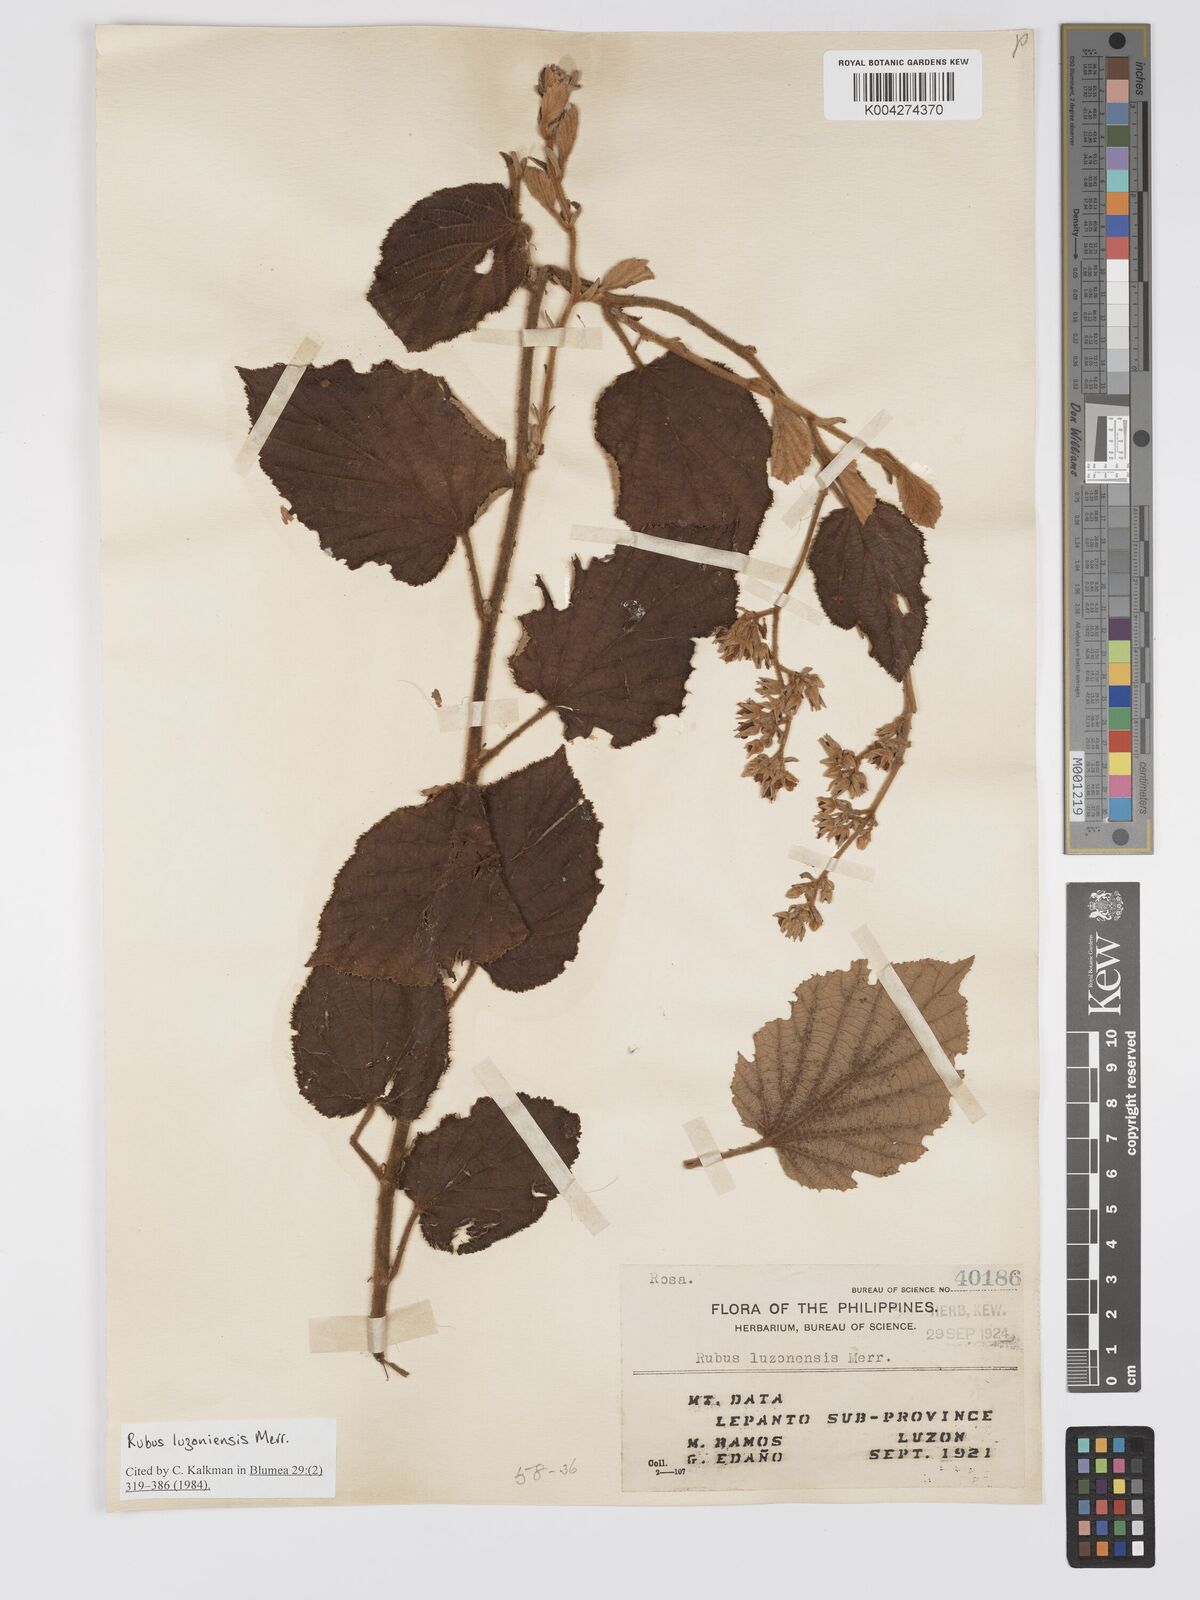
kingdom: Plantae
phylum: Tracheophyta
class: Magnoliopsida
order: Rosales
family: Rosaceae
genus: Rubus
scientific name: Rubus luzoniensis
